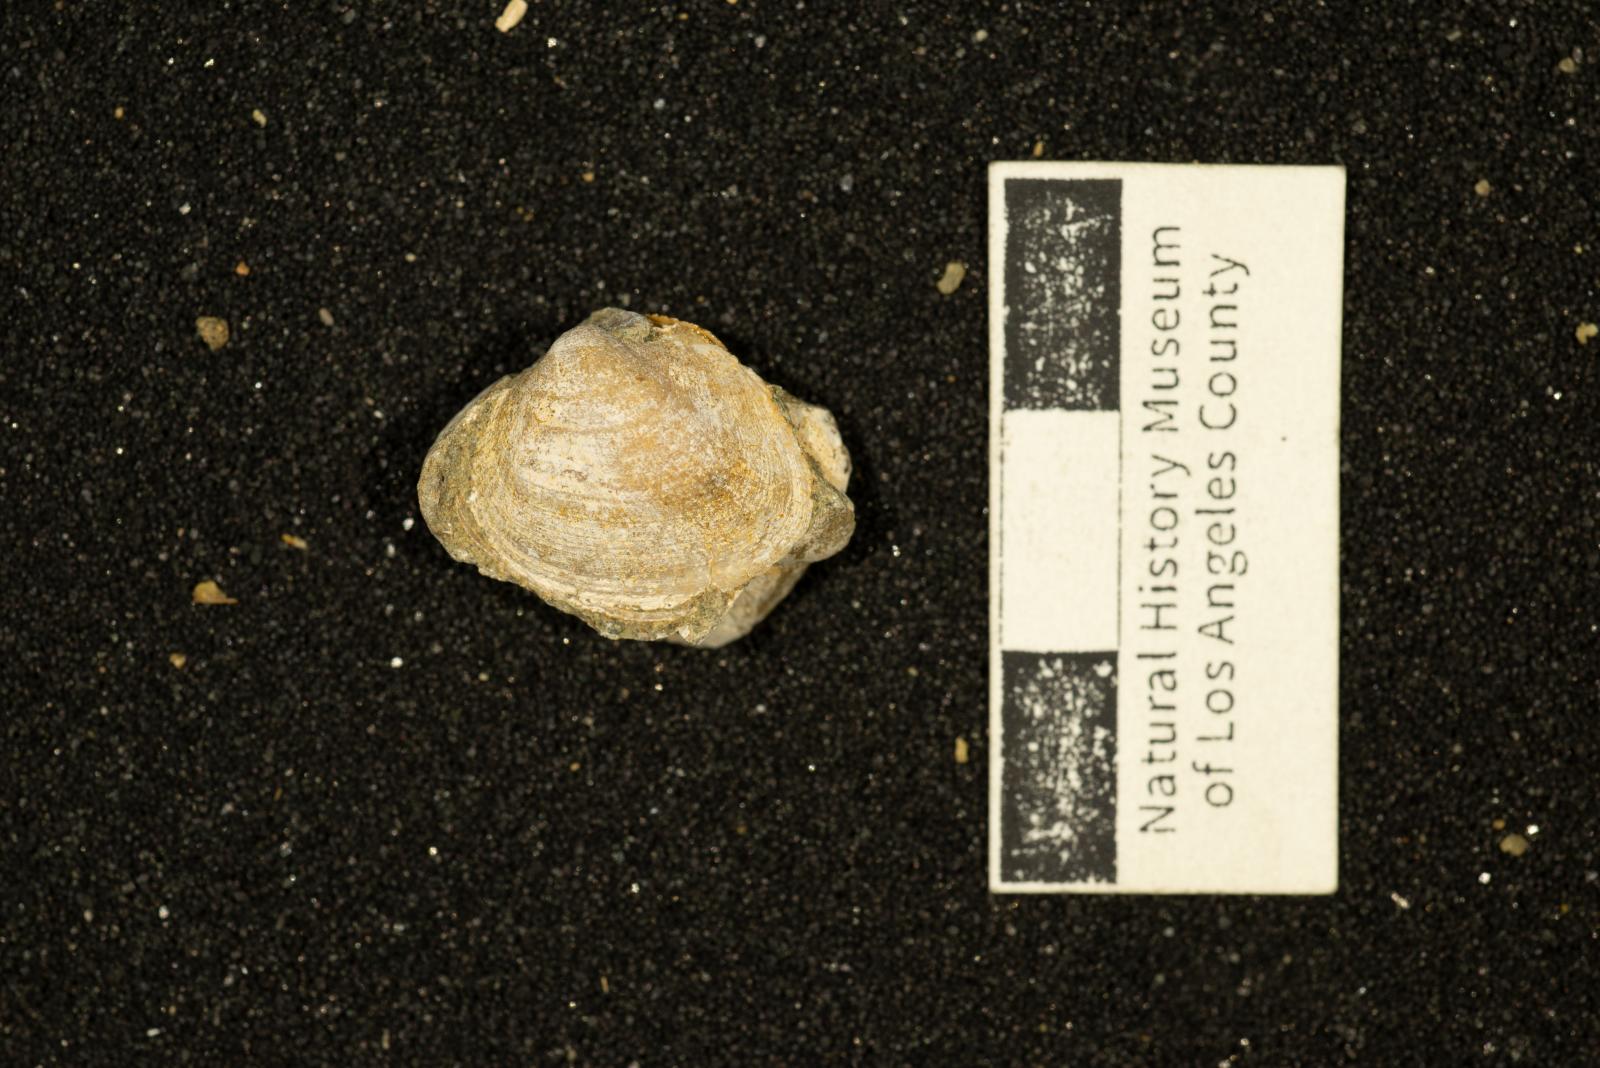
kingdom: Animalia
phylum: Mollusca
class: Bivalvia
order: Arcida
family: Cucullaeidae
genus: Idonearca
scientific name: Idonearca Arca gravida
